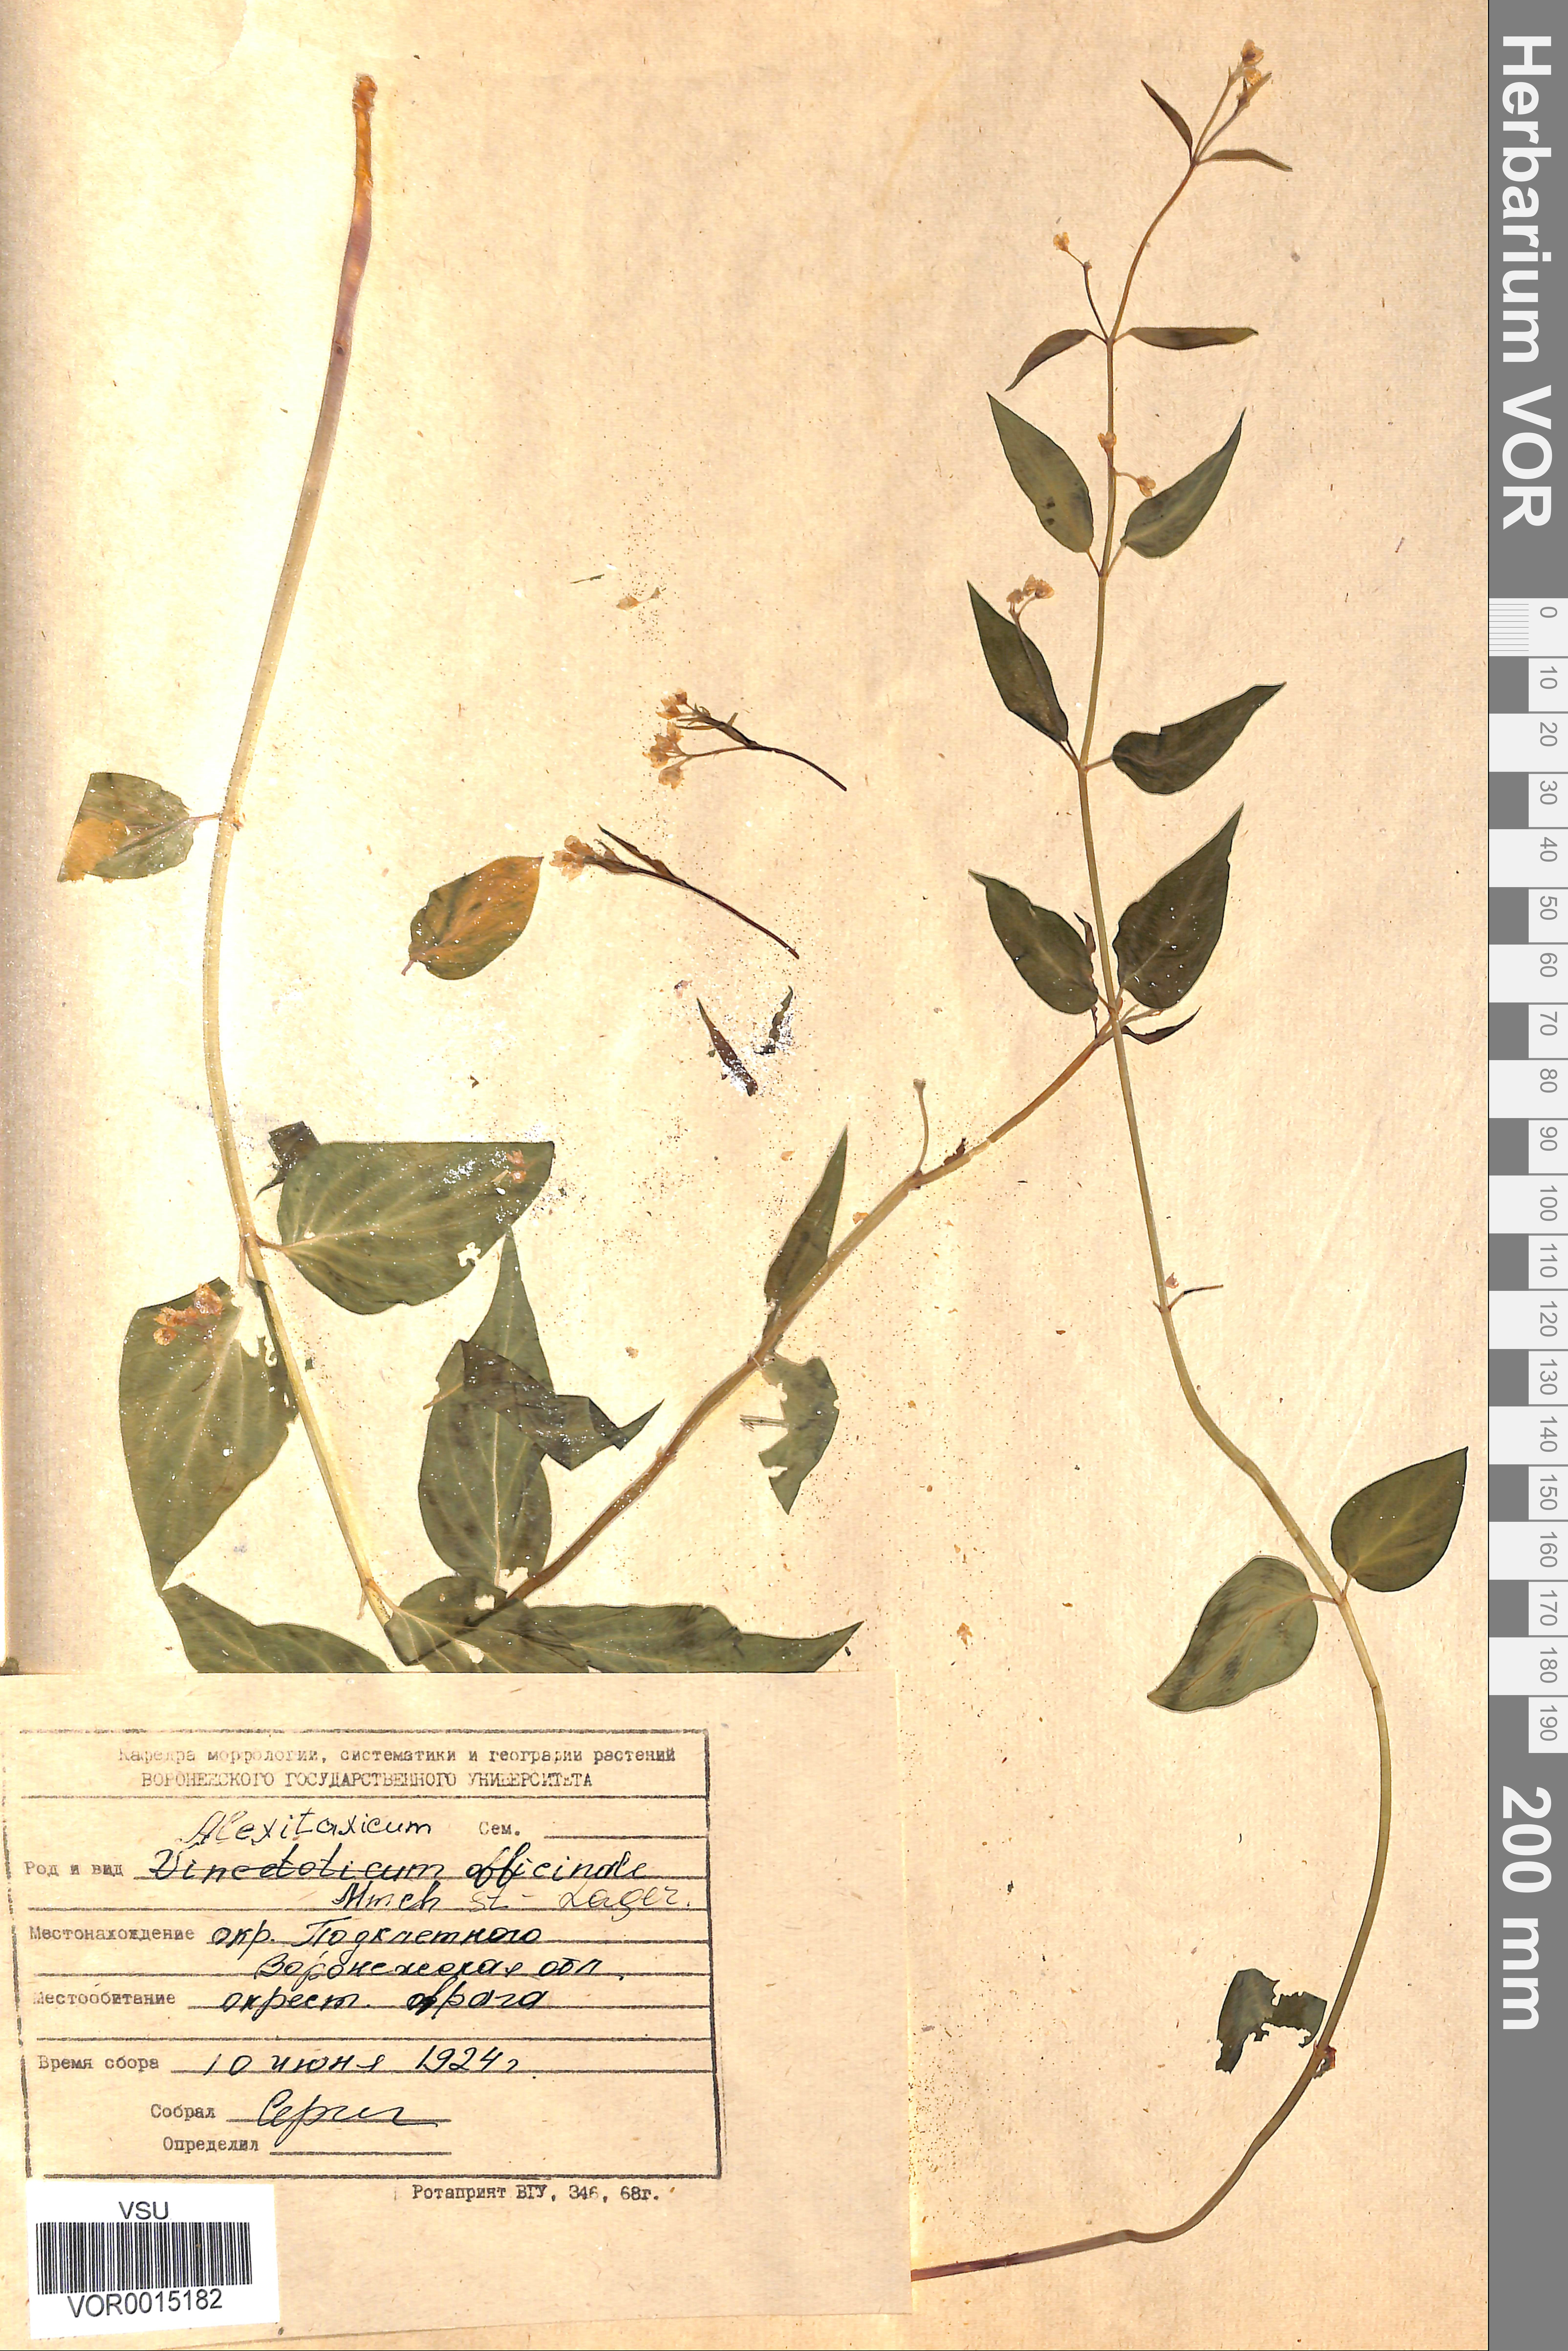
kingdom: Plantae
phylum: Tracheophyta
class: Magnoliopsida
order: Gentianales
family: Apocynaceae
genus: Vincetoxicum
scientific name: Vincetoxicum hirundinaria
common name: White swallowwort
